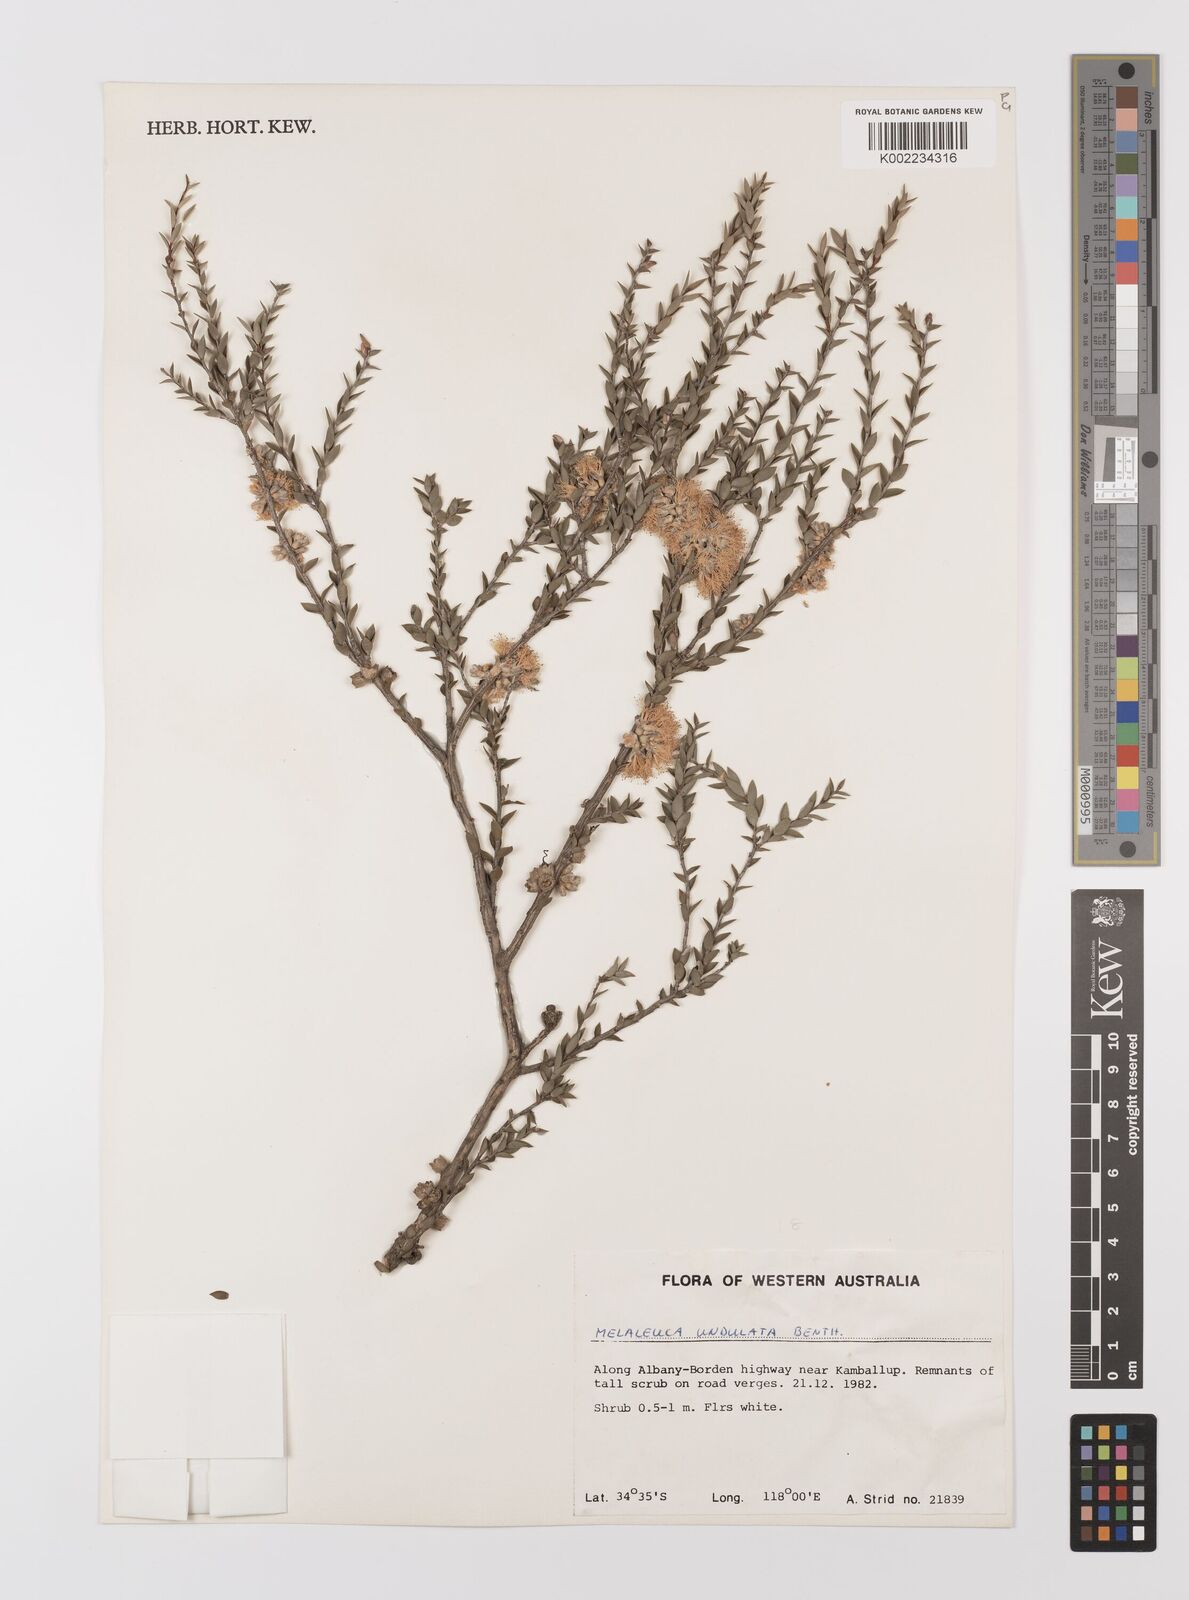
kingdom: Plantae
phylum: Tracheophyta
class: Magnoliopsida
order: Myrtales
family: Myrtaceae
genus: Melaleuca
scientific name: Melaleuca undulata
